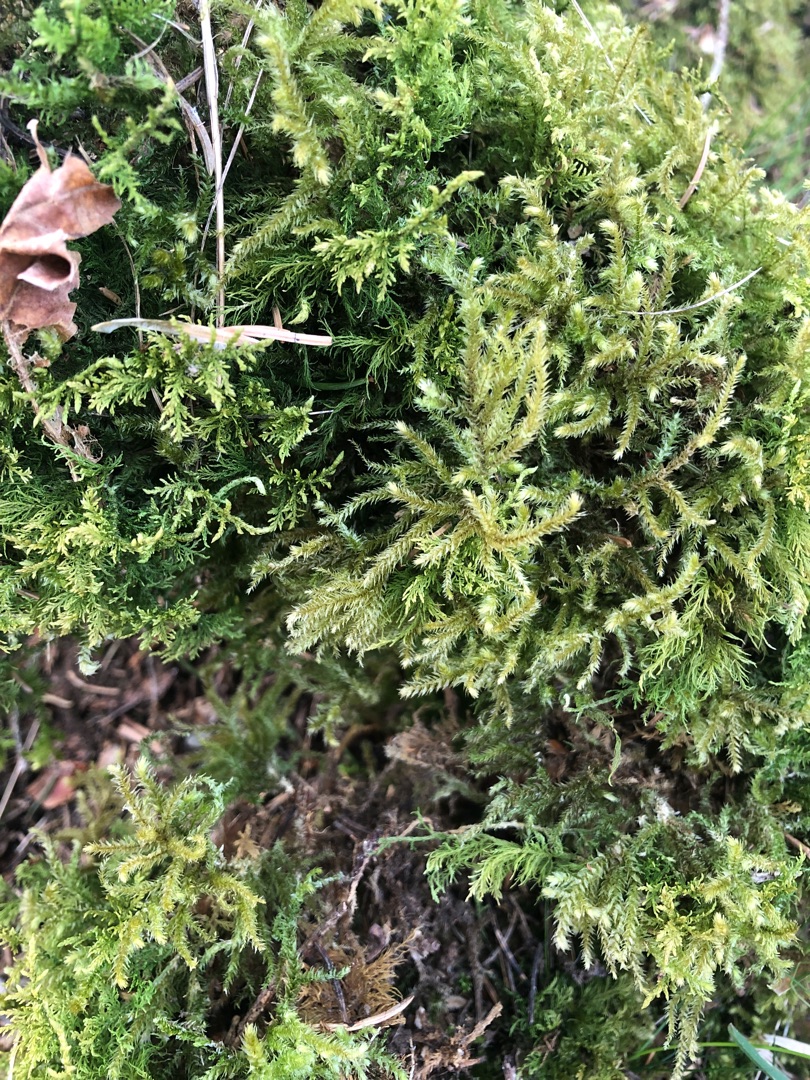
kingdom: Plantae
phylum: Bryophyta
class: Bryopsida
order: Hypnales
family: Brachytheciaceae
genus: Eurhynchium
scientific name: Eurhynchium striatum
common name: Stribet næbmos
